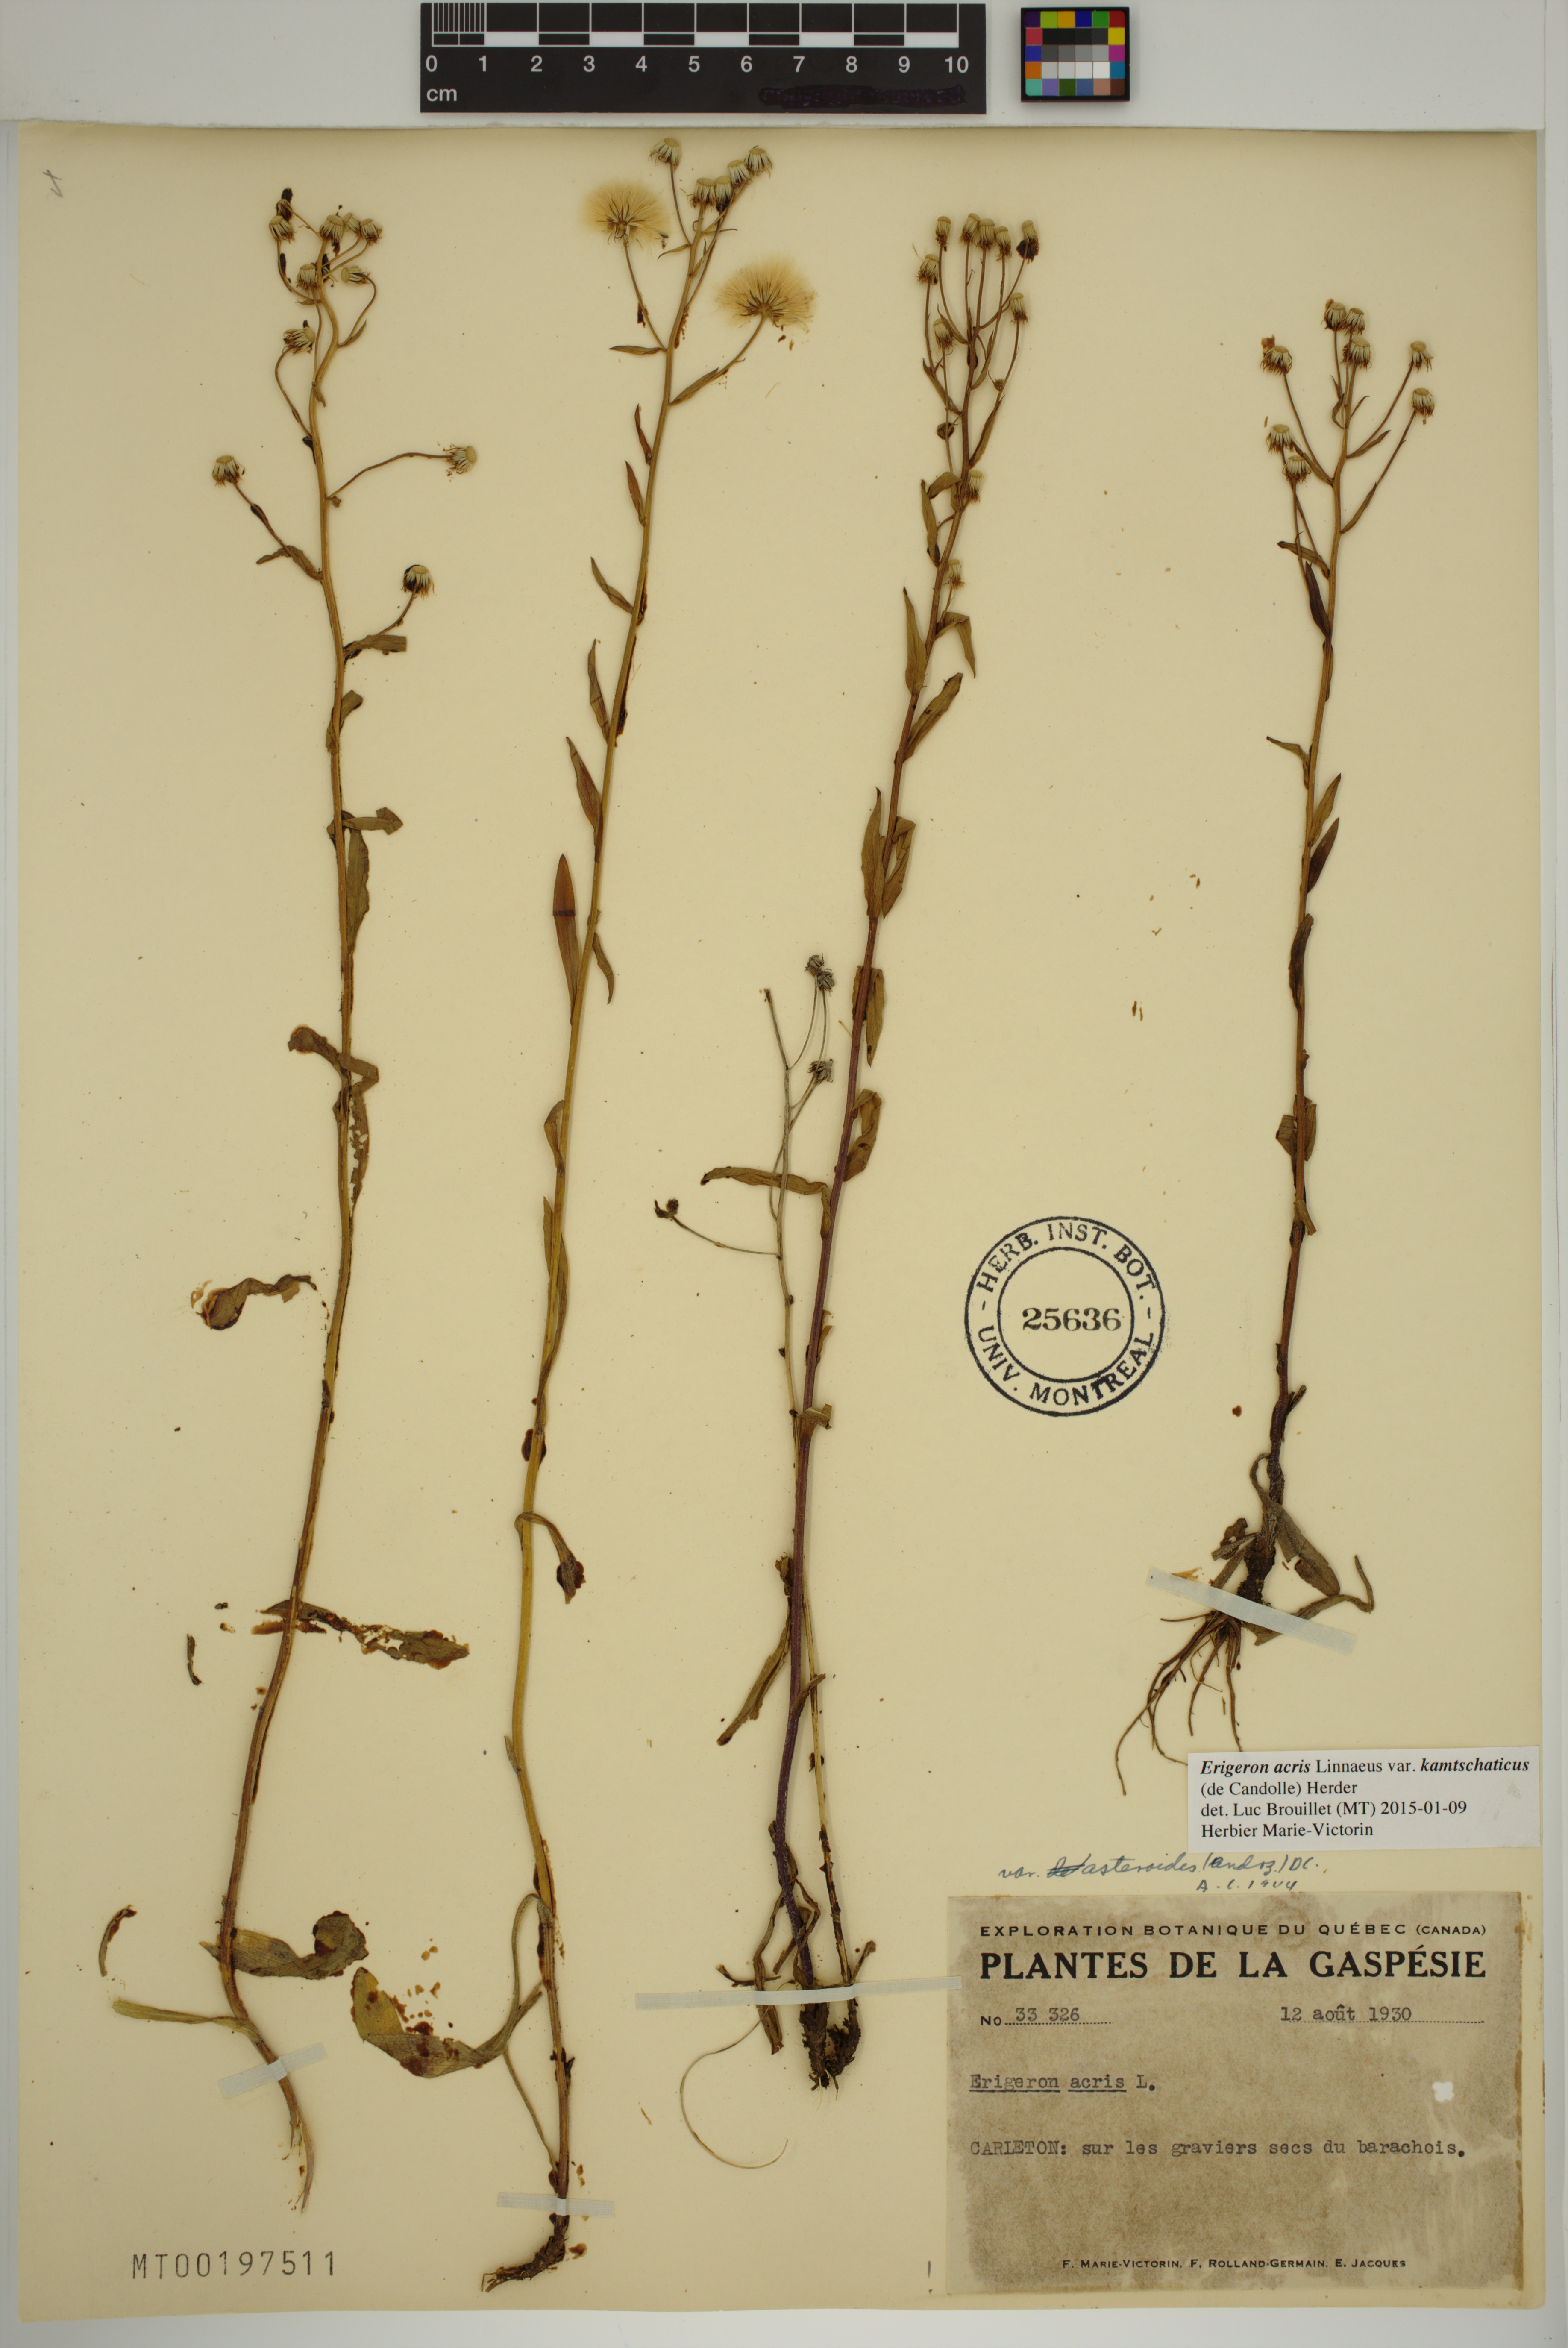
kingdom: Plantae
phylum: Tracheophyta
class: Magnoliopsida
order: Asterales
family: Asteraceae
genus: Erigeron
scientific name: Erigeron kamtschaticus
